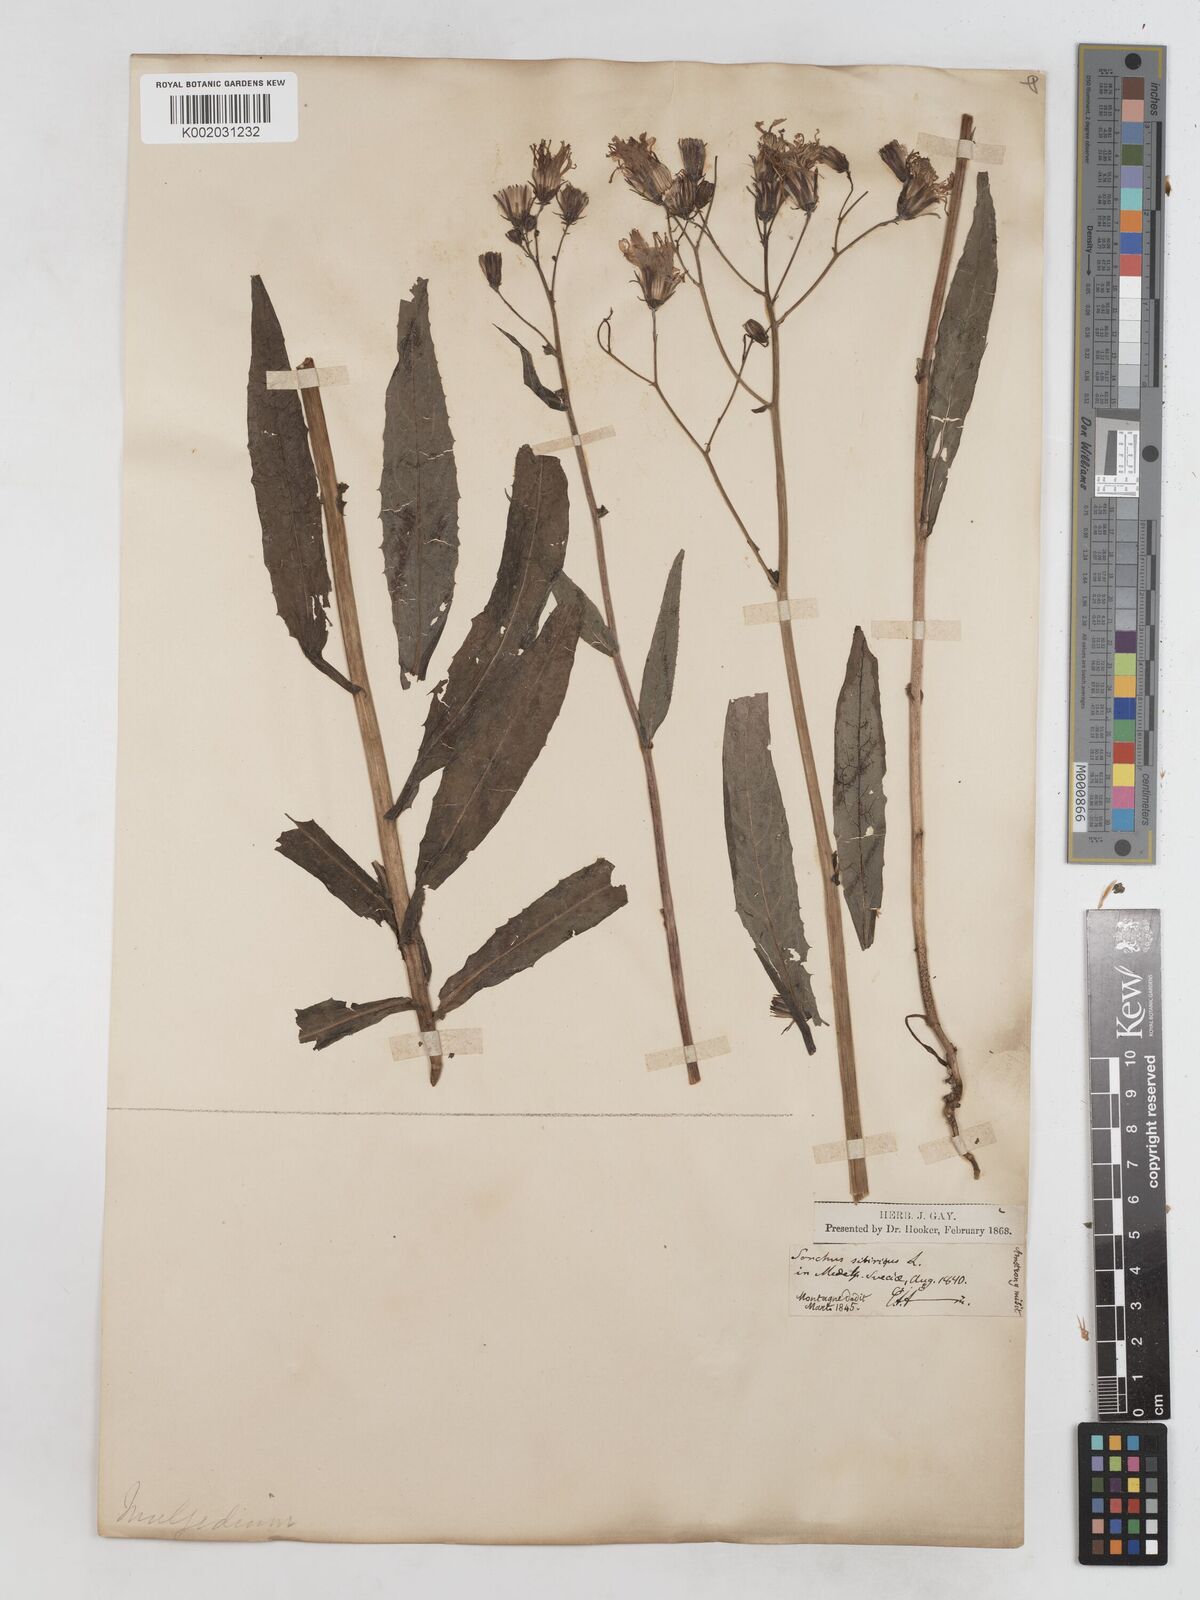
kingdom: Plantae
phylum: Tracheophyta
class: Magnoliopsida
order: Asterales
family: Asteraceae
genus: Lactuca
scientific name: Lactuca sibirica
